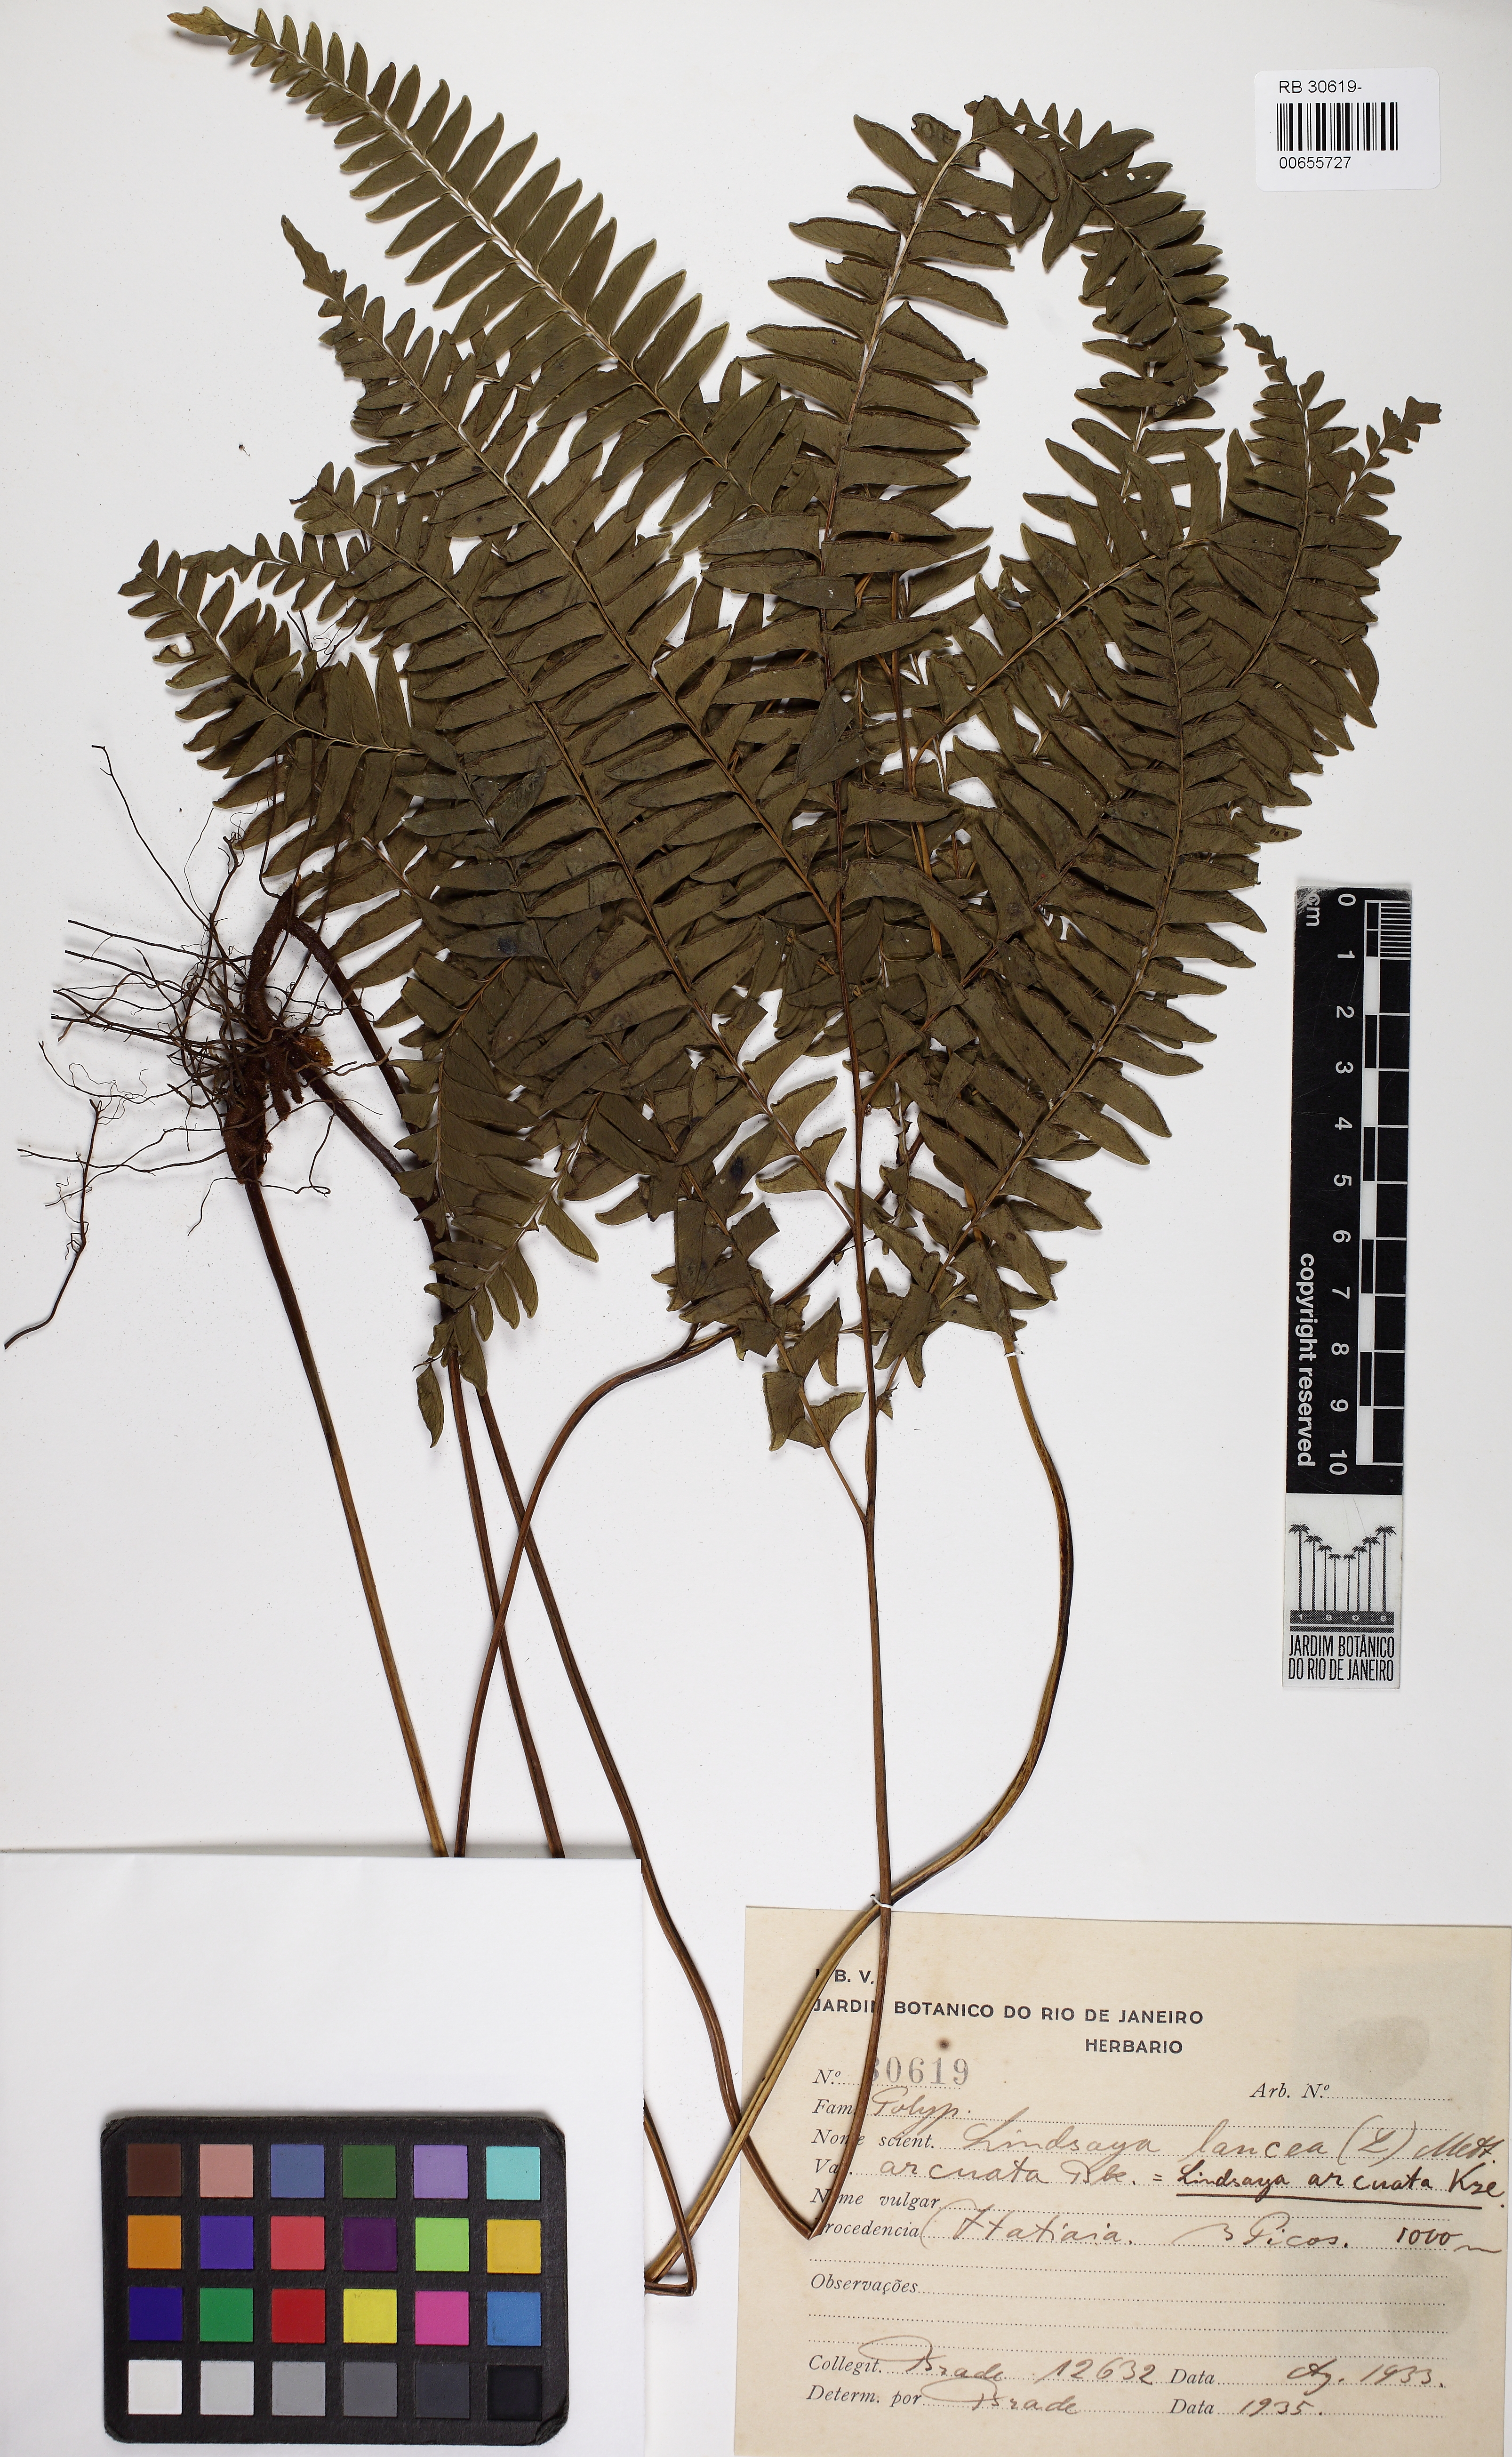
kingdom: Plantae
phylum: Tracheophyta
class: Polypodiopsida
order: Polypodiales
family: Lindsaeaceae
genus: Lindsaea
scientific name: Lindsaea arcuata
